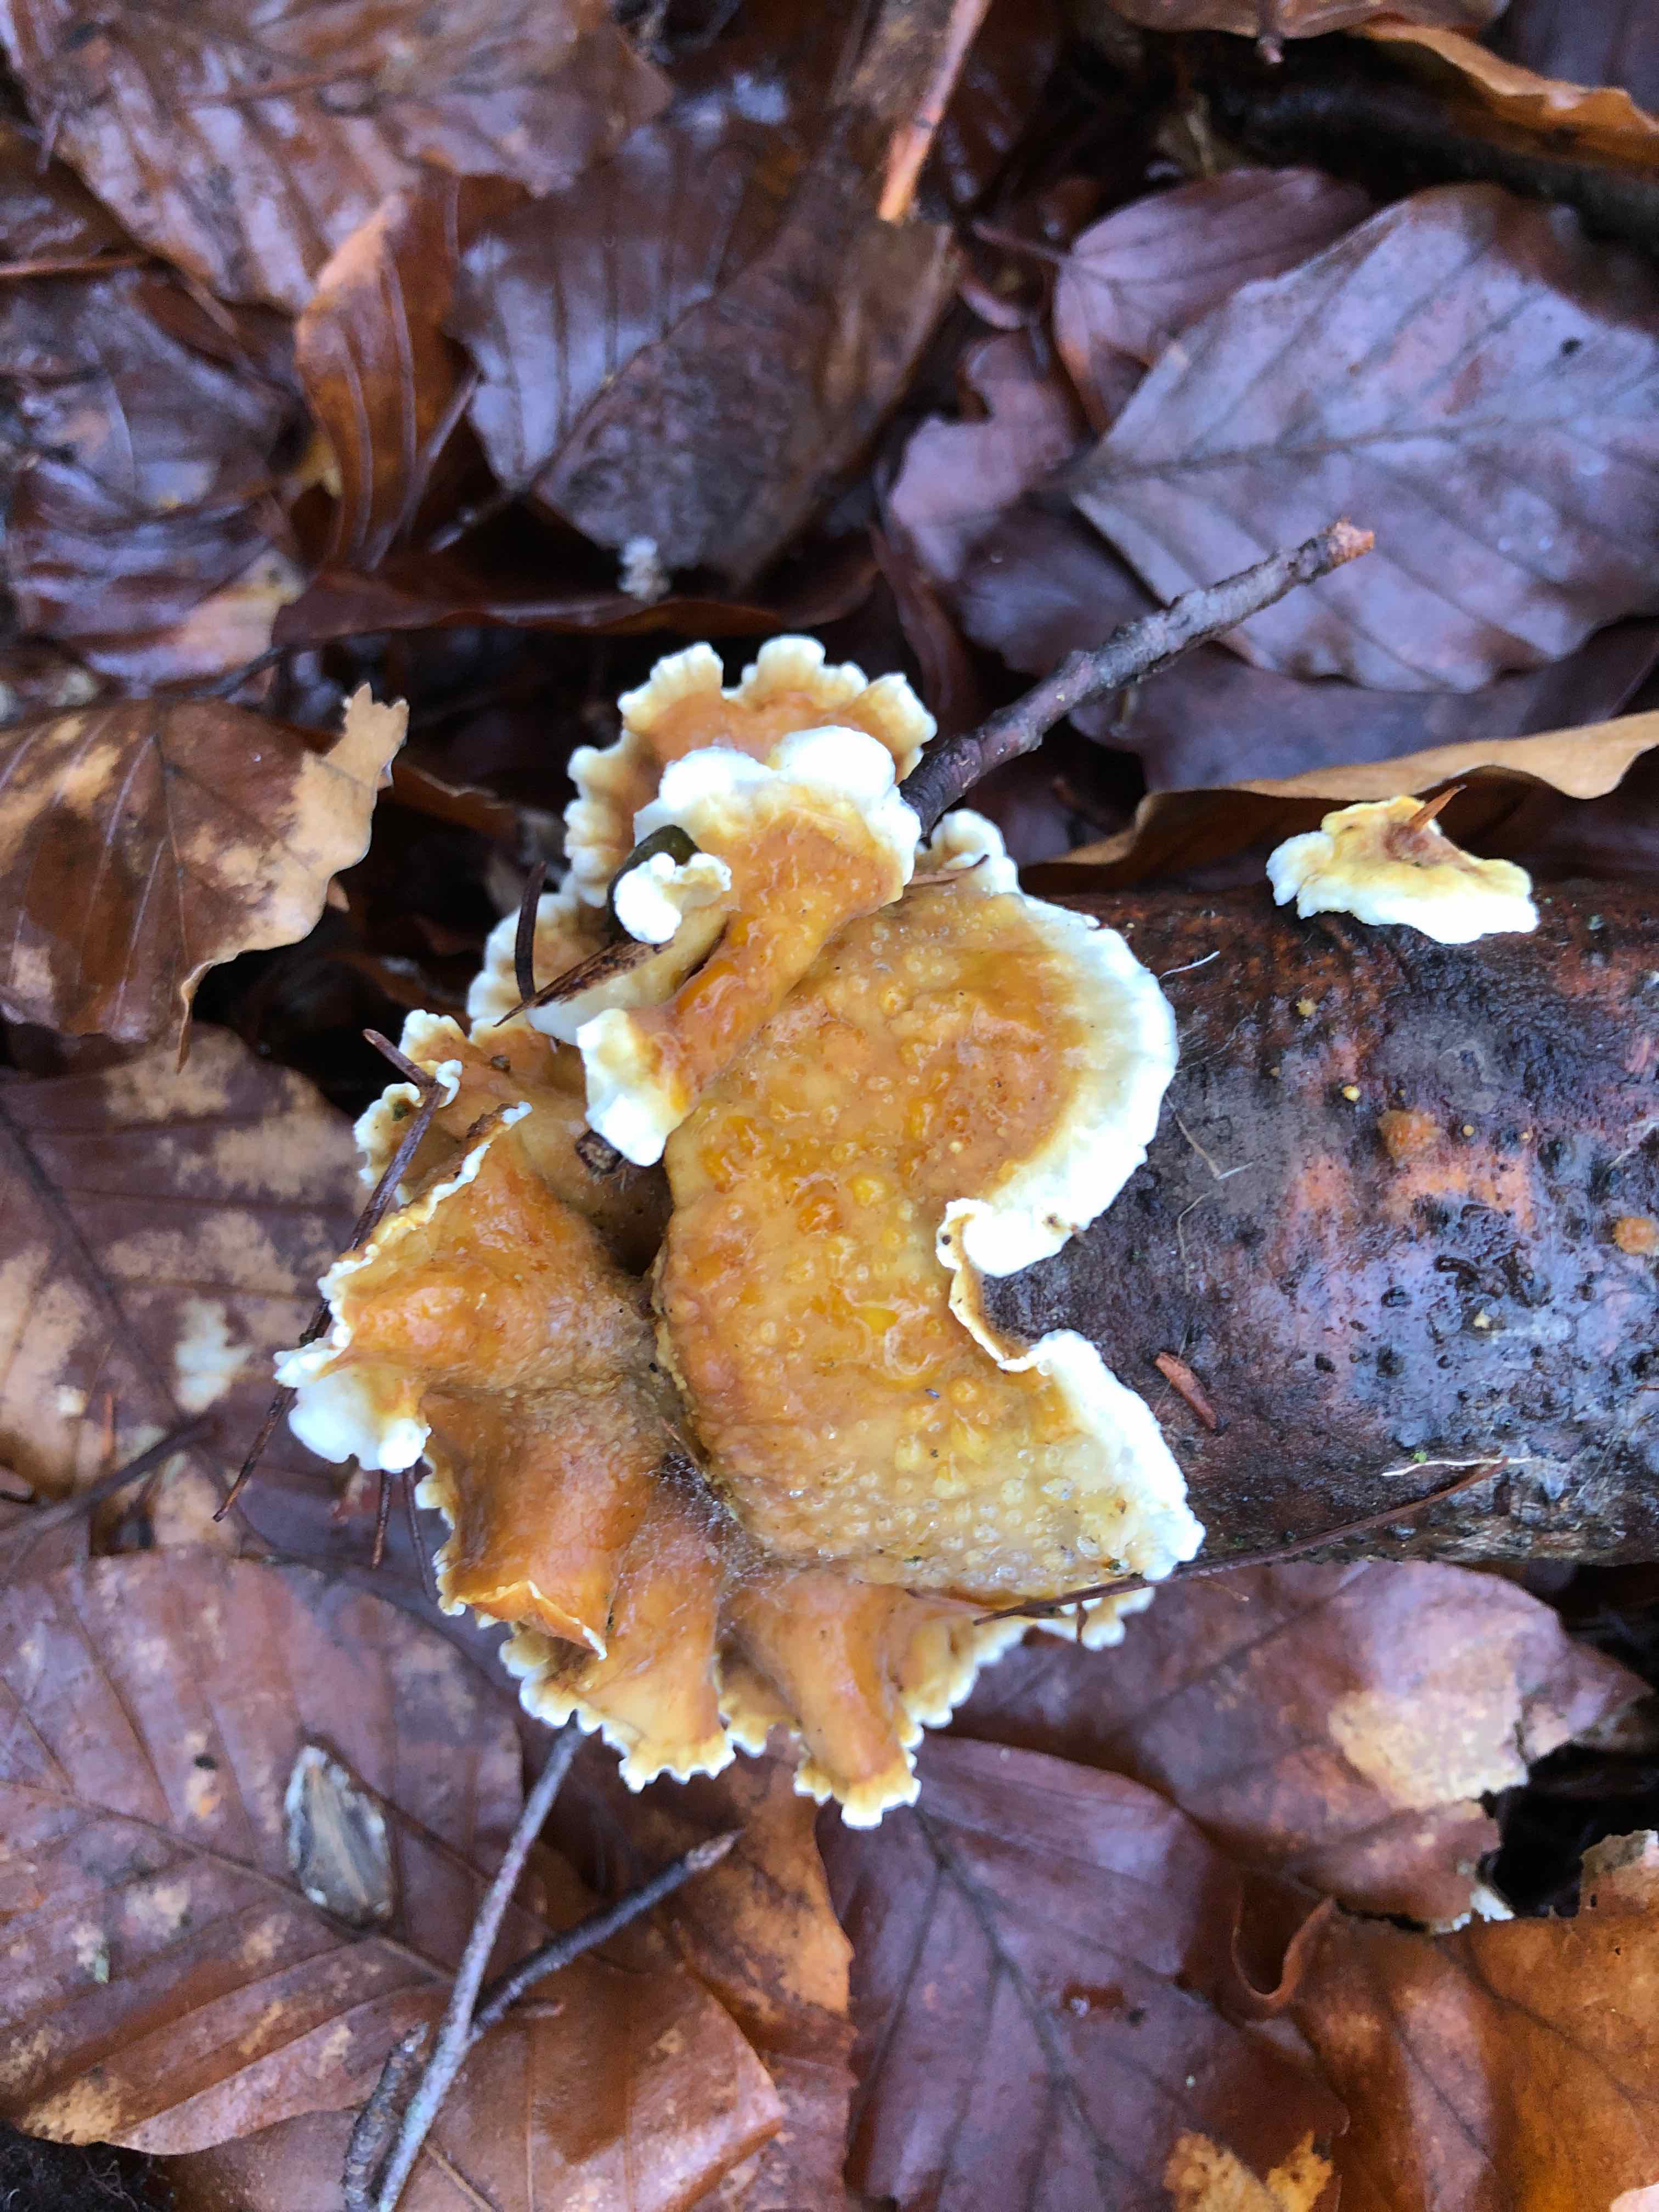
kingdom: Fungi
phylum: Basidiomycota
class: Agaricomycetes
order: Russulales
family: Stereaceae
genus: Stereum
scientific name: Stereum hirsutum
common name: håret lædersvamp
